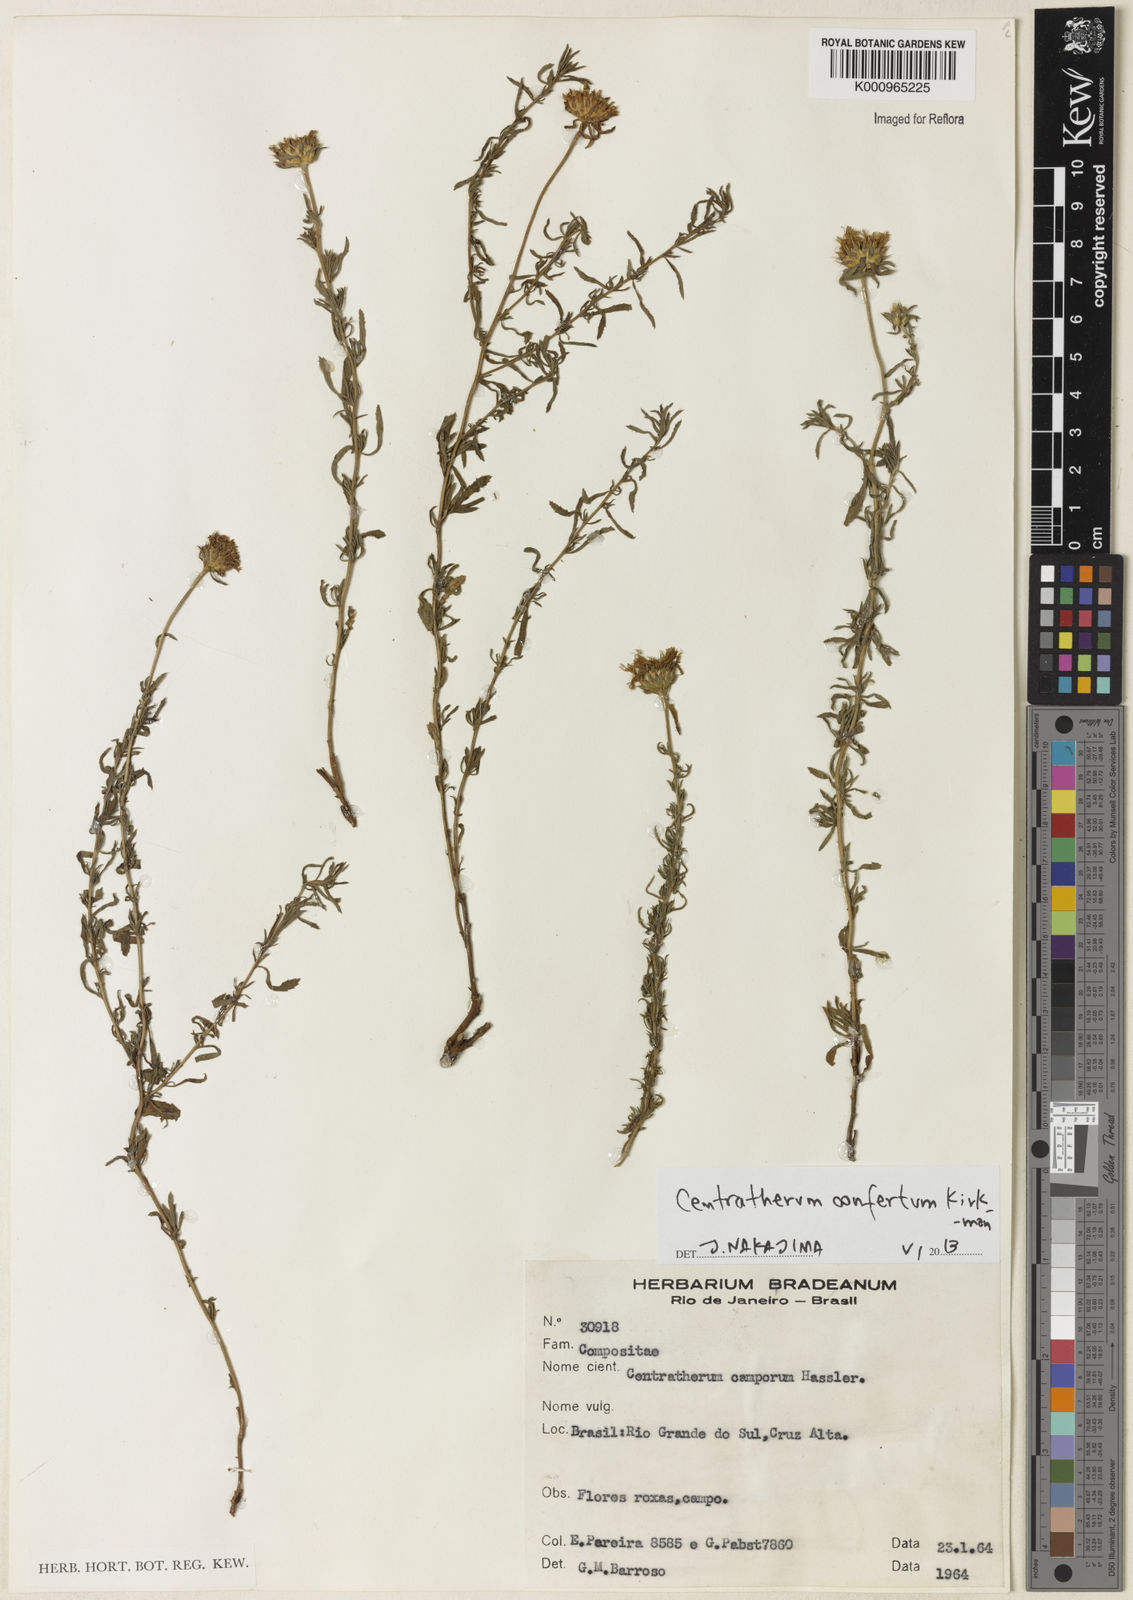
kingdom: Plantae
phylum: Tracheophyta
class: Magnoliopsida
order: Asterales
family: Asteraceae
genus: Centratherum
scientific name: Centratherum confertum
